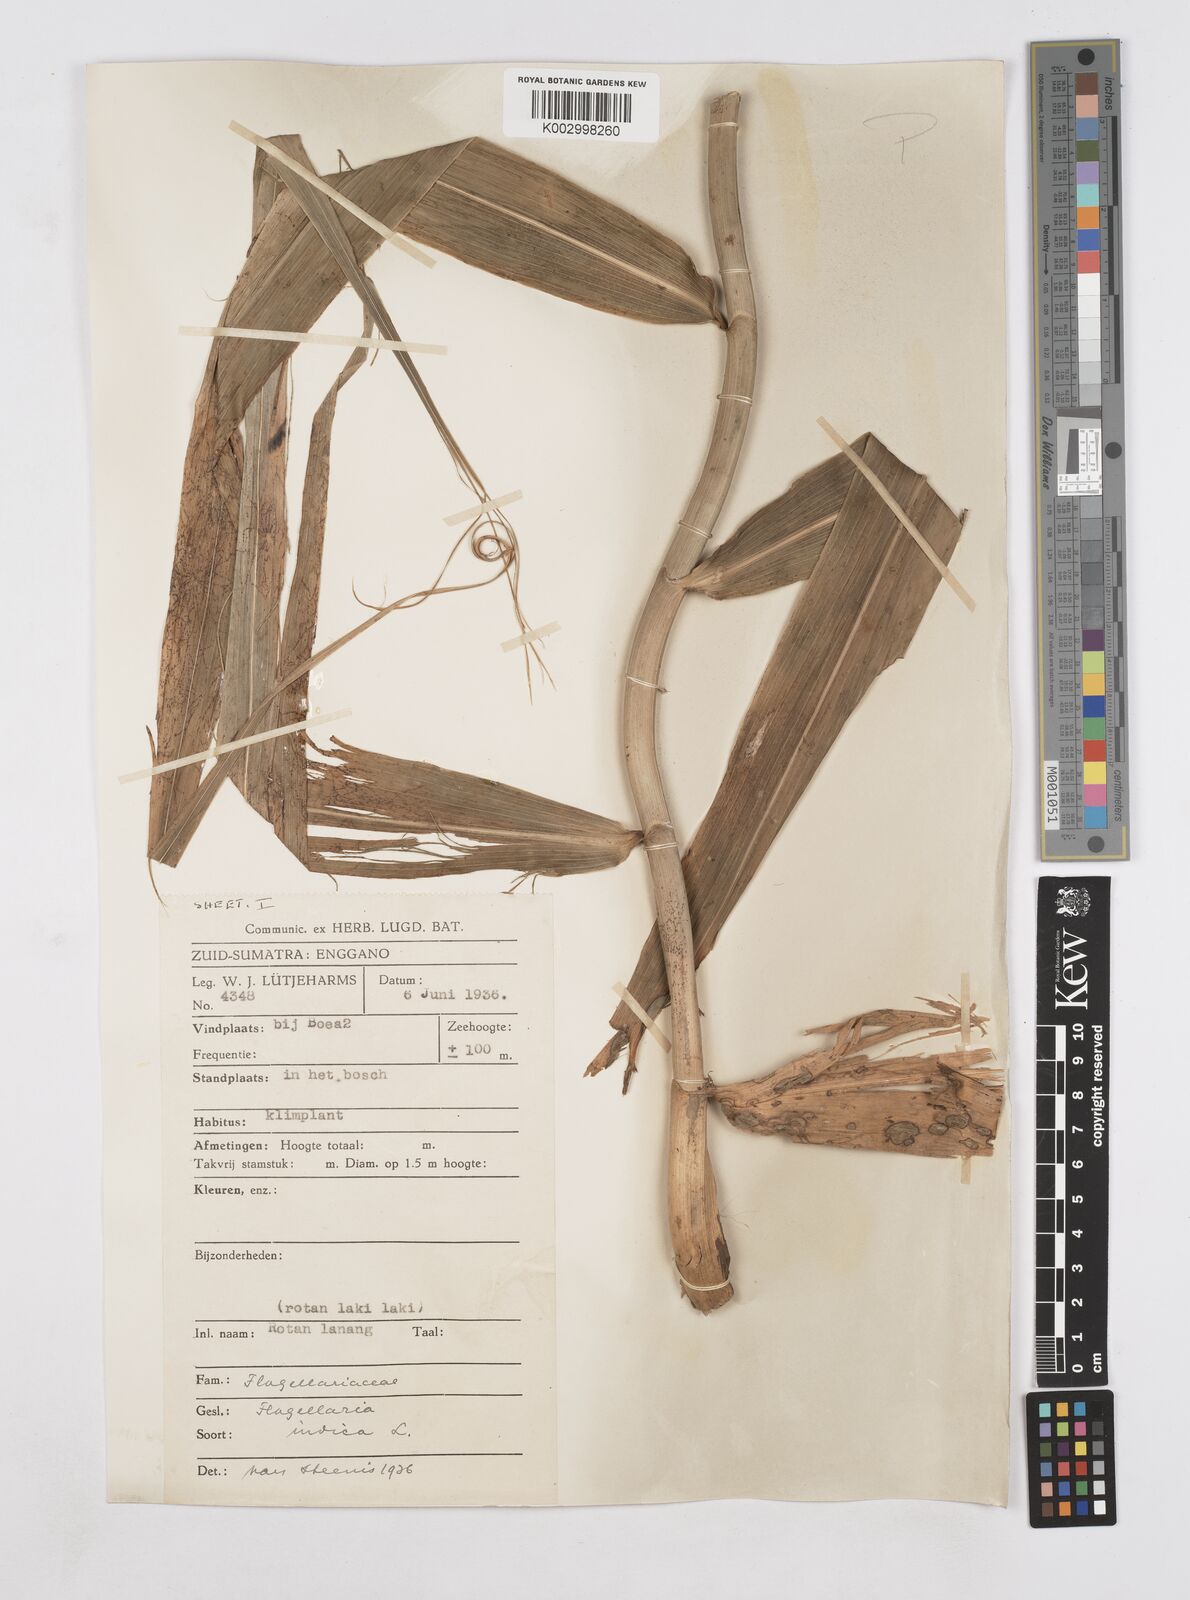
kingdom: Plantae
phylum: Tracheophyta
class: Liliopsida
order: Poales
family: Flagellariaceae
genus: Flagellaria
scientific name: Flagellaria indica
